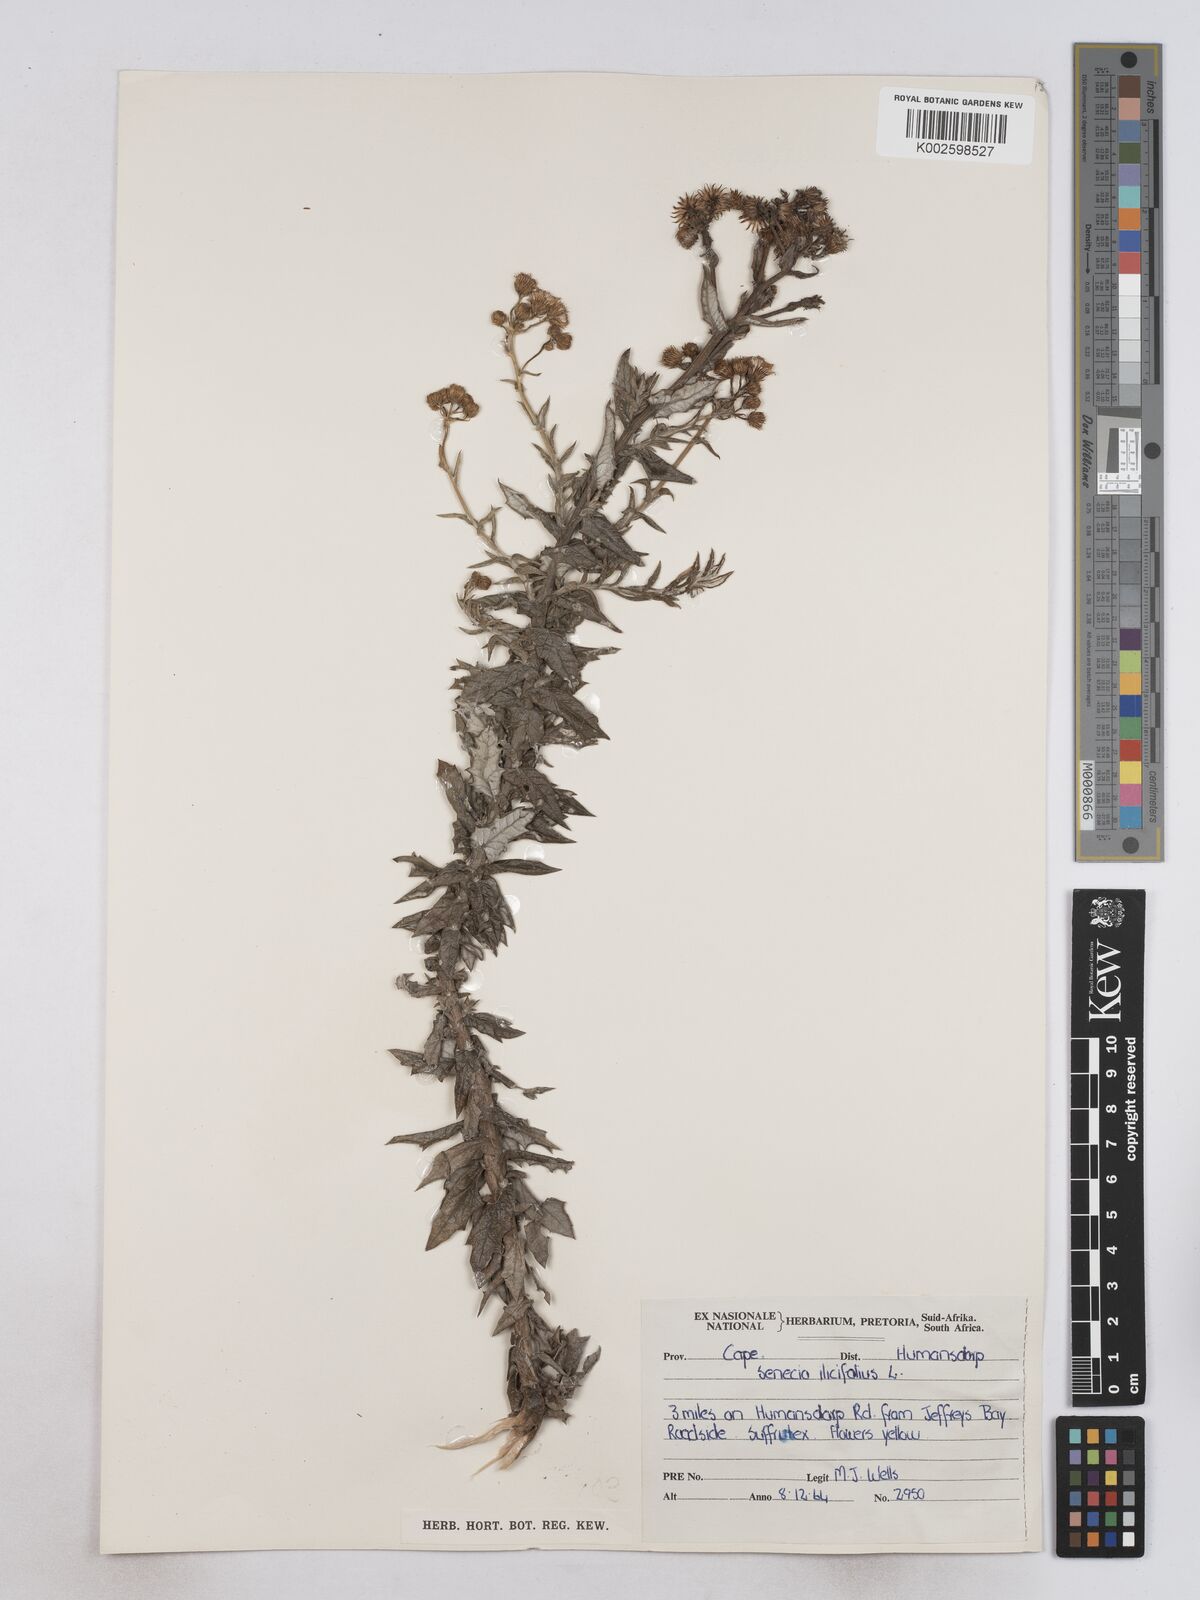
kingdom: Plantae
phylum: Tracheophyta
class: Magnoliopsida
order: Asterales
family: Asteraceae
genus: Senecio
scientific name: Senecio ilicifolius
